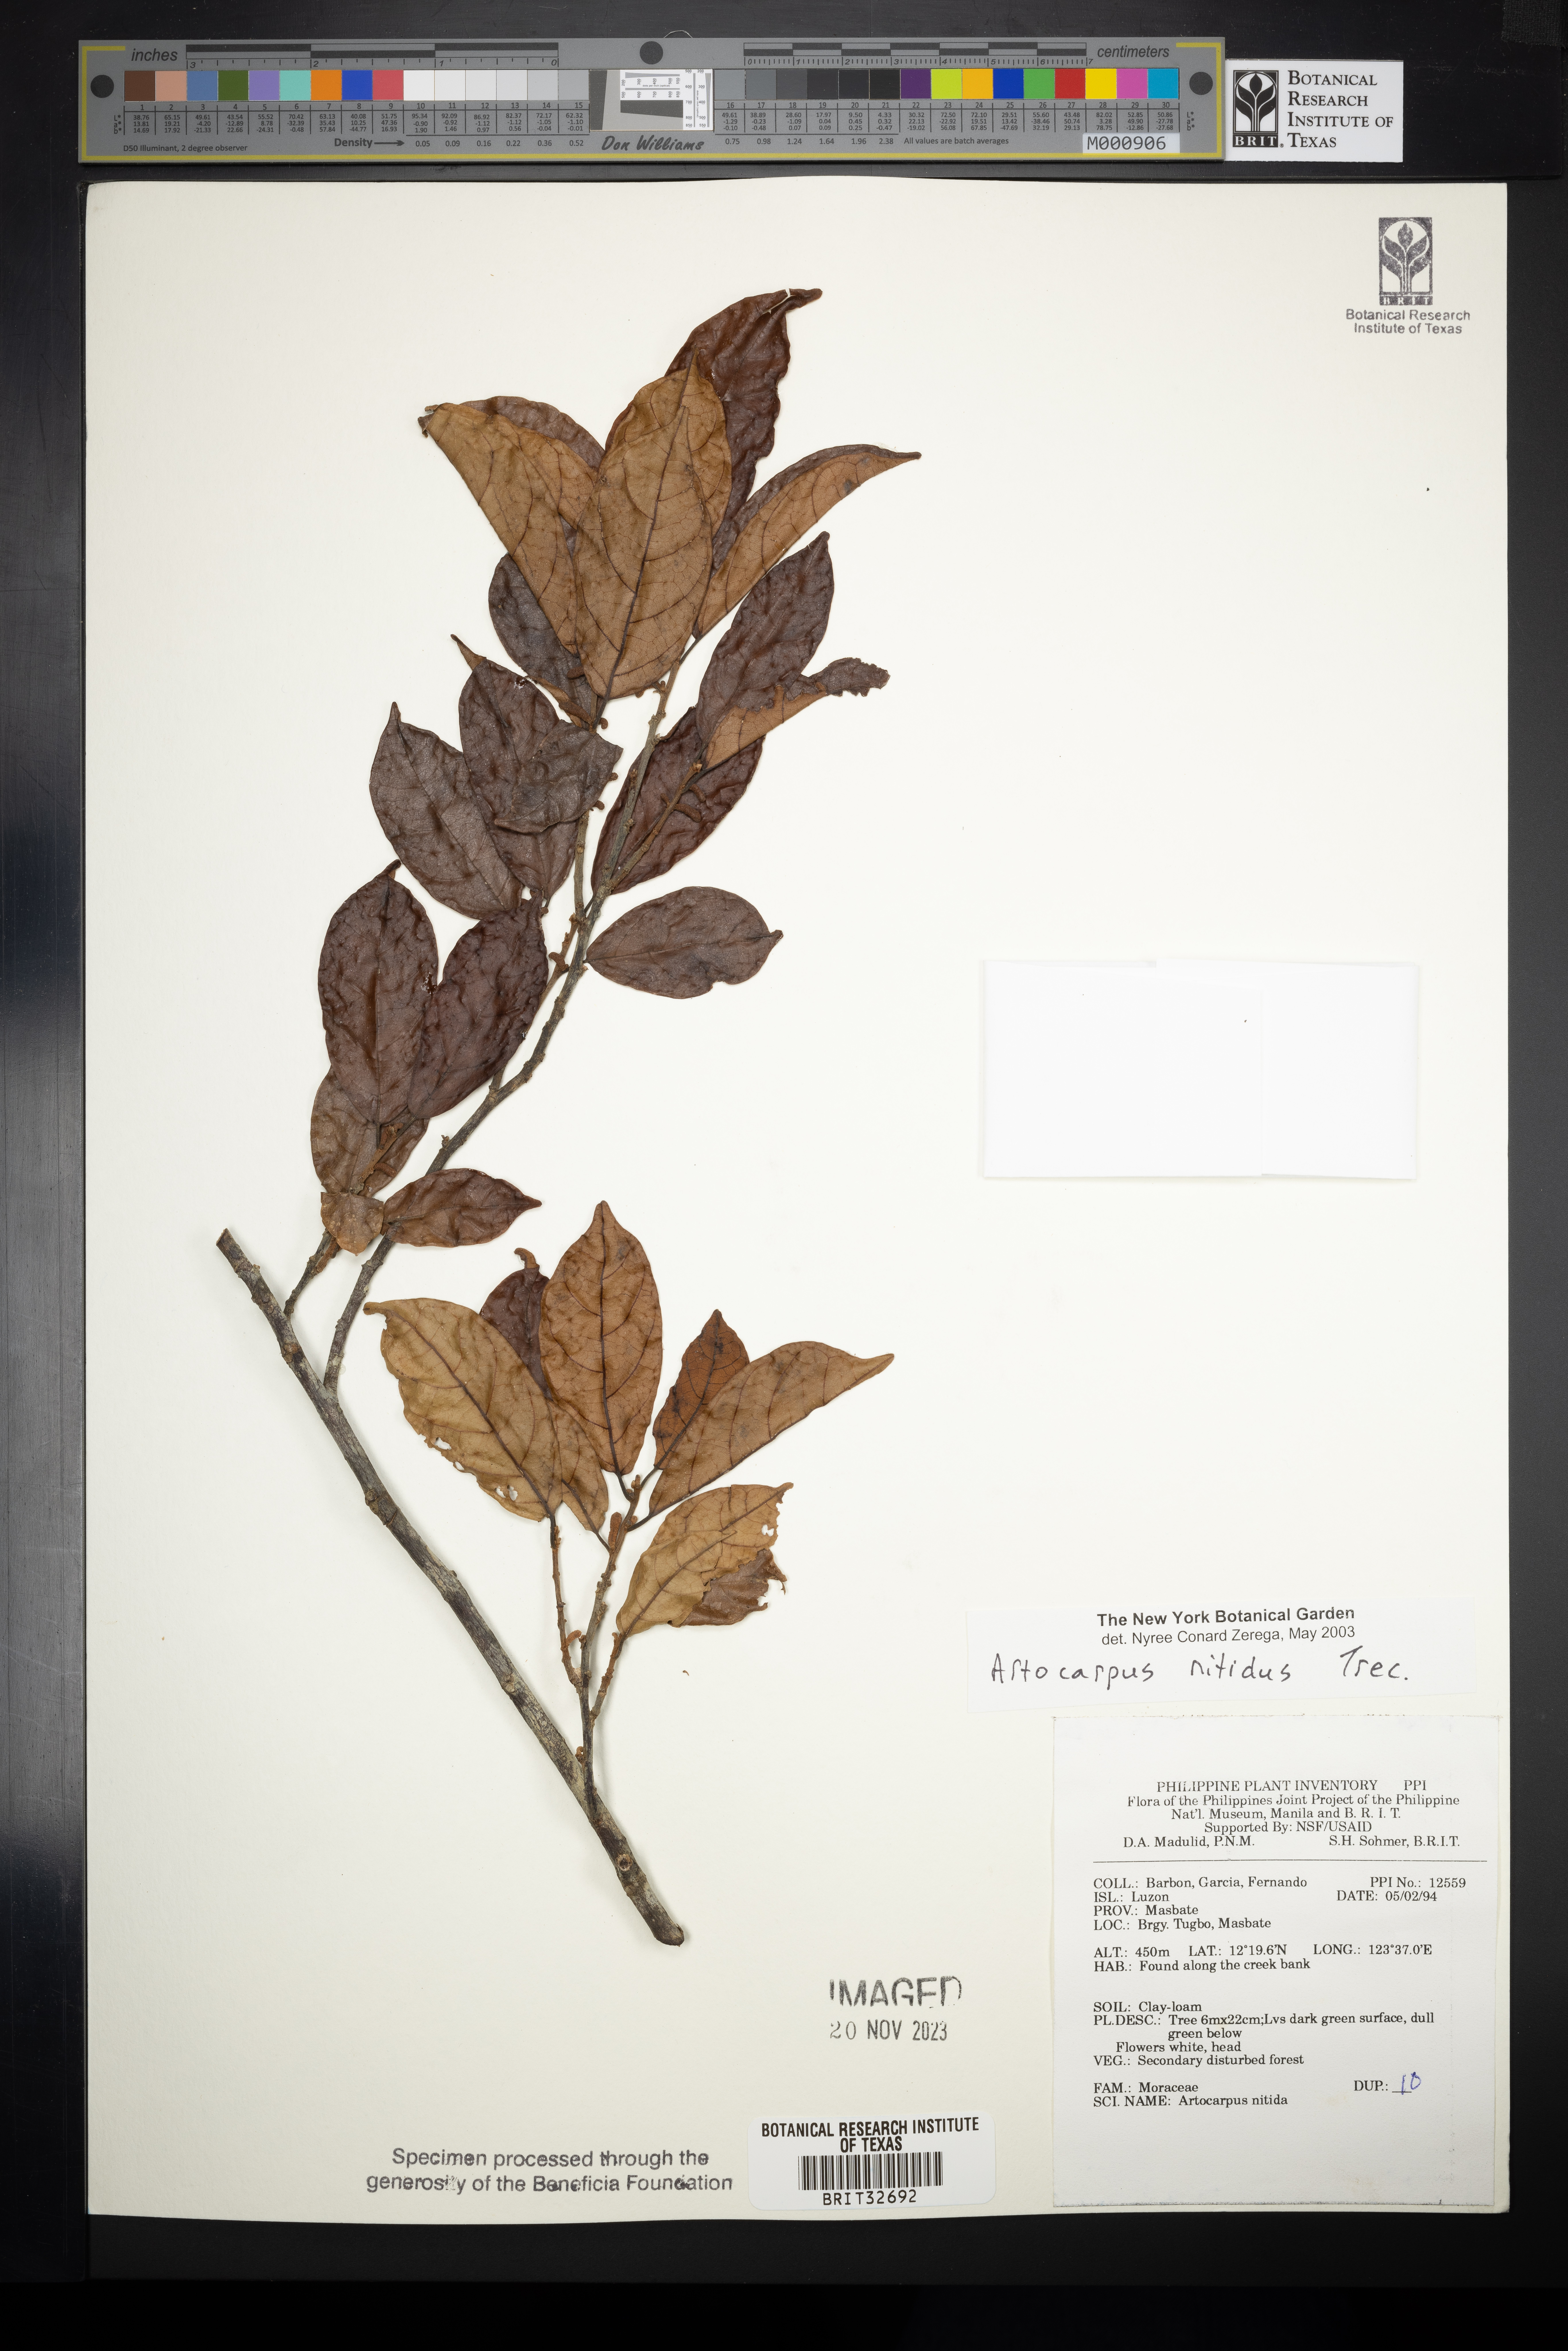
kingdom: Plantae
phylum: Tracheophyta
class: Magnoliopsida
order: Rosales
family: Moraceae
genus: Artocarpus
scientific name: Artocarpus lamellosus
